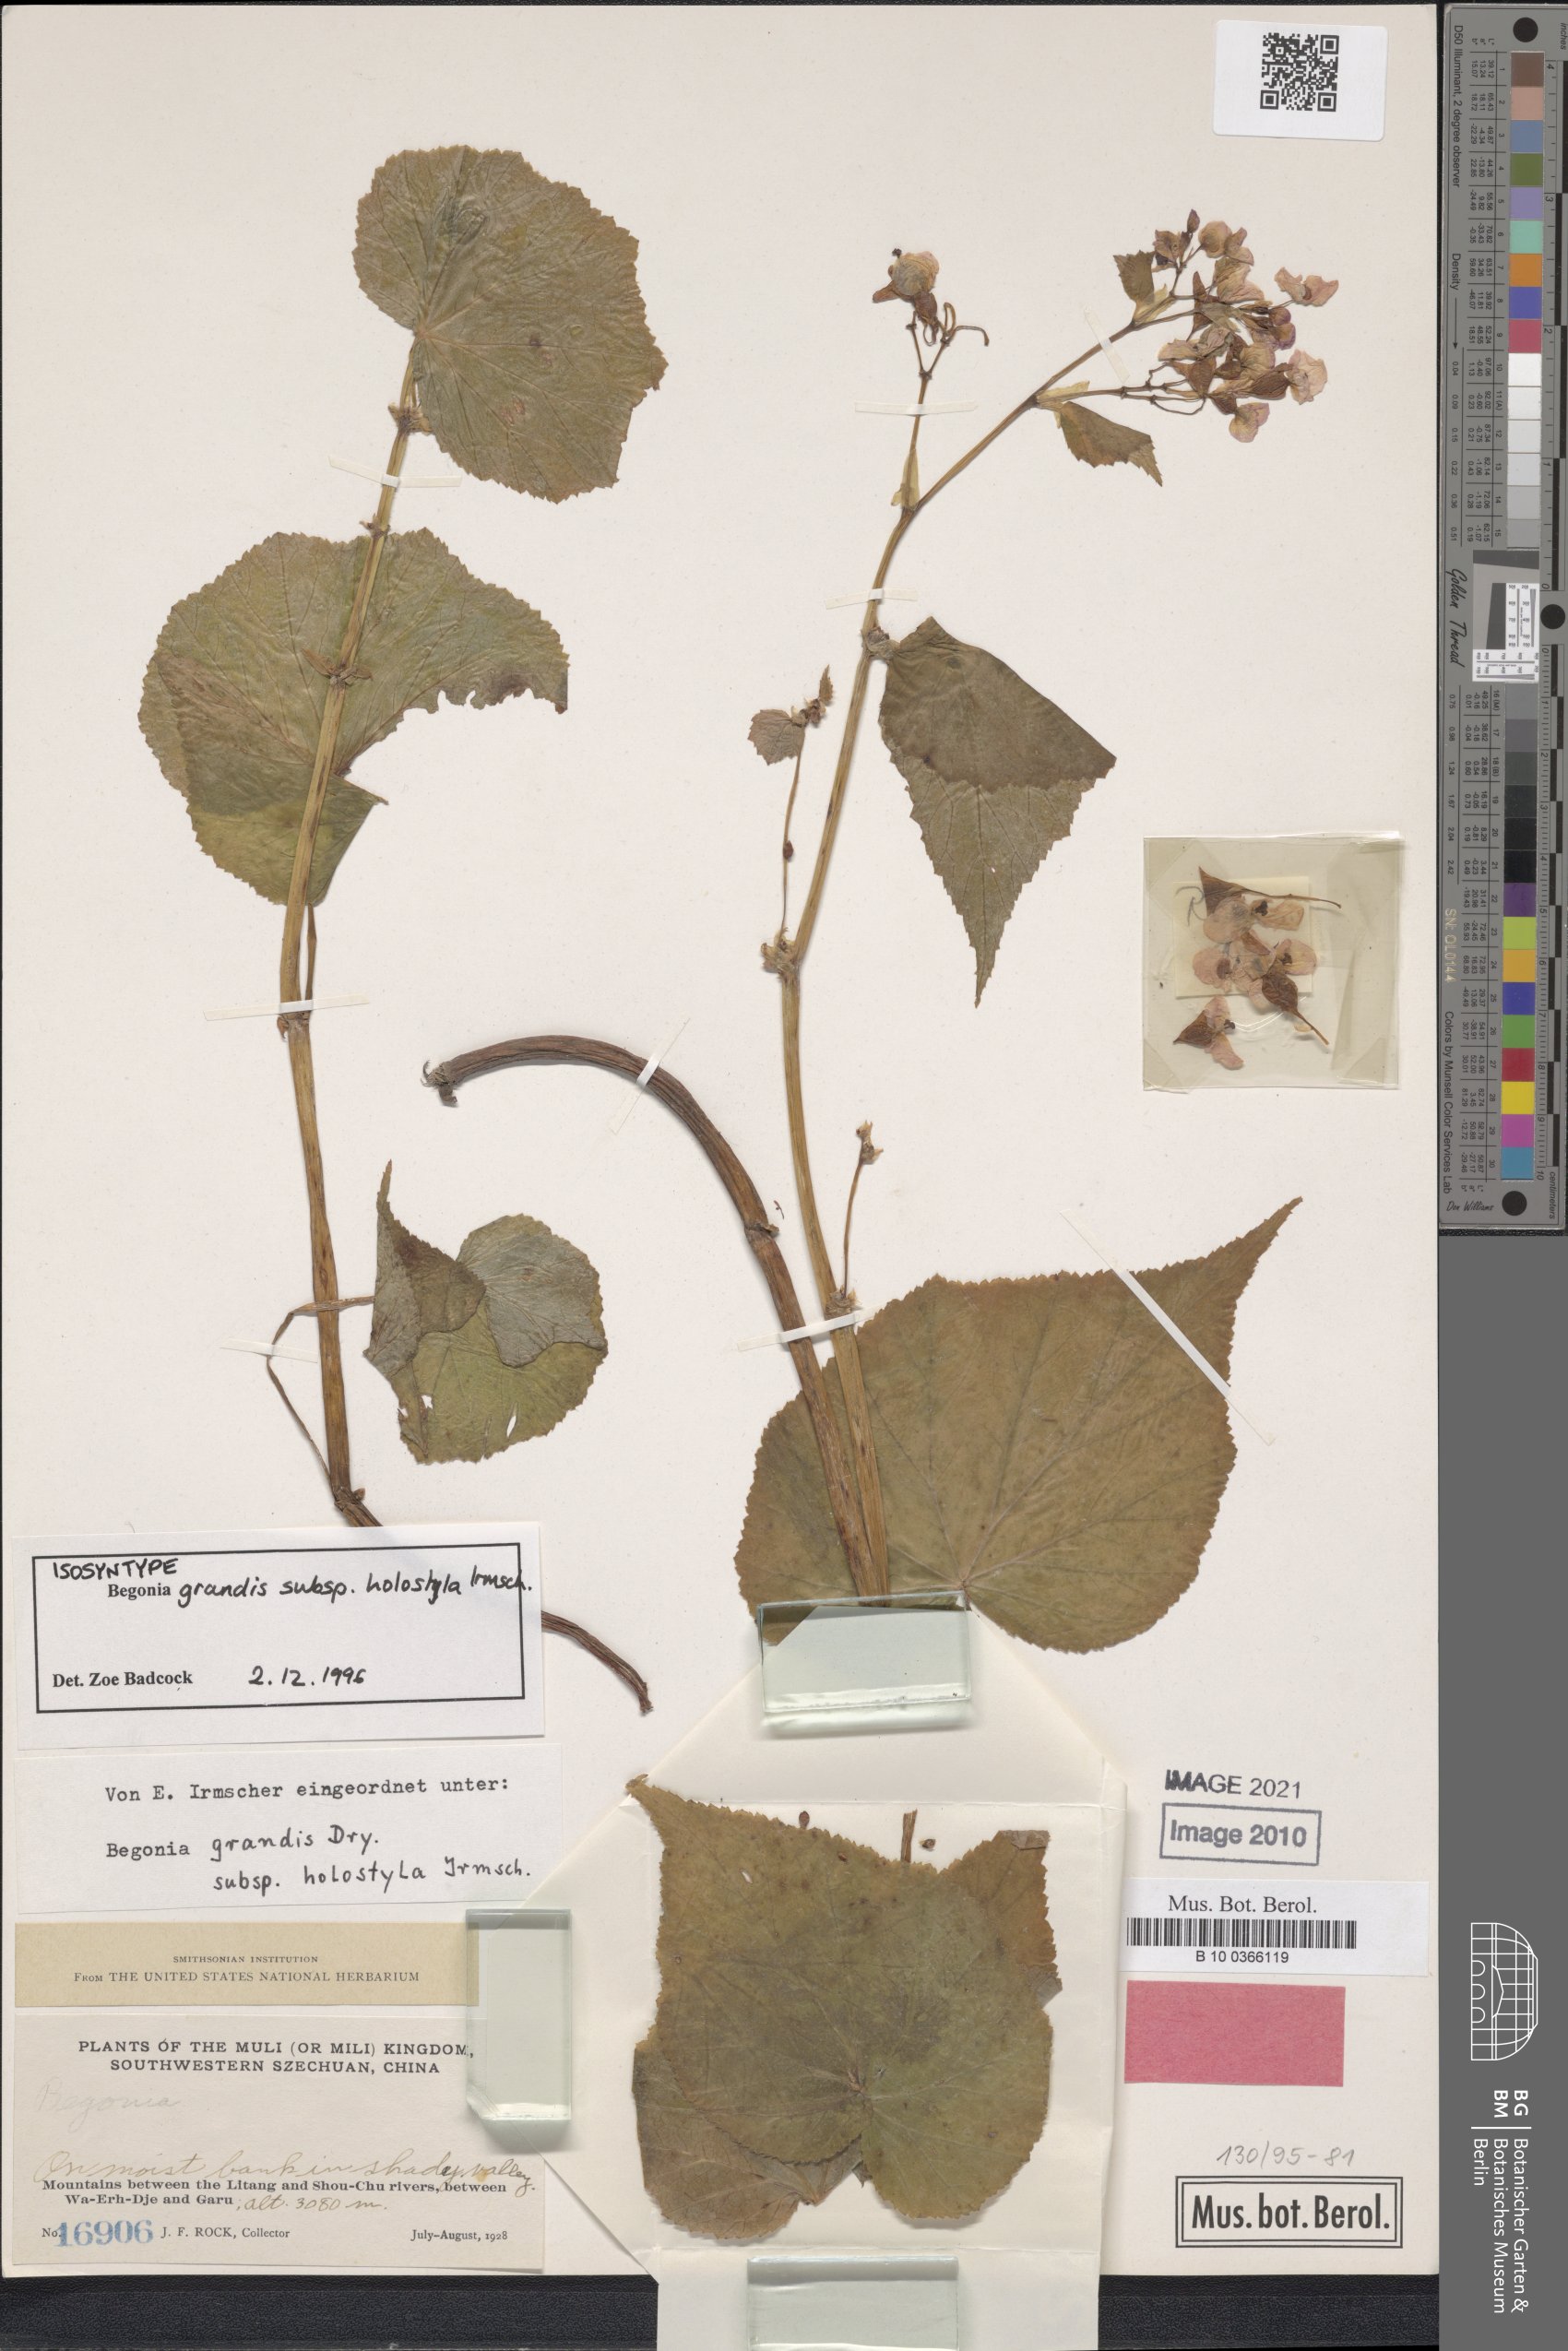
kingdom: Plantae
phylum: Tracheophyta
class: Magnoliopsida
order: Cucurbitales
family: Begoniaceae
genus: Begonia
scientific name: Begonia grandis
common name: Hardy begonia
